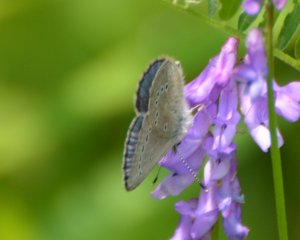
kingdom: Animalia
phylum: Arthropoda
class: Insecta
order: Lepidoptera
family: Lycaenidae
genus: Glaucopsyche
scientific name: Glaucopsyche lygdamus
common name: Silvery Blue
